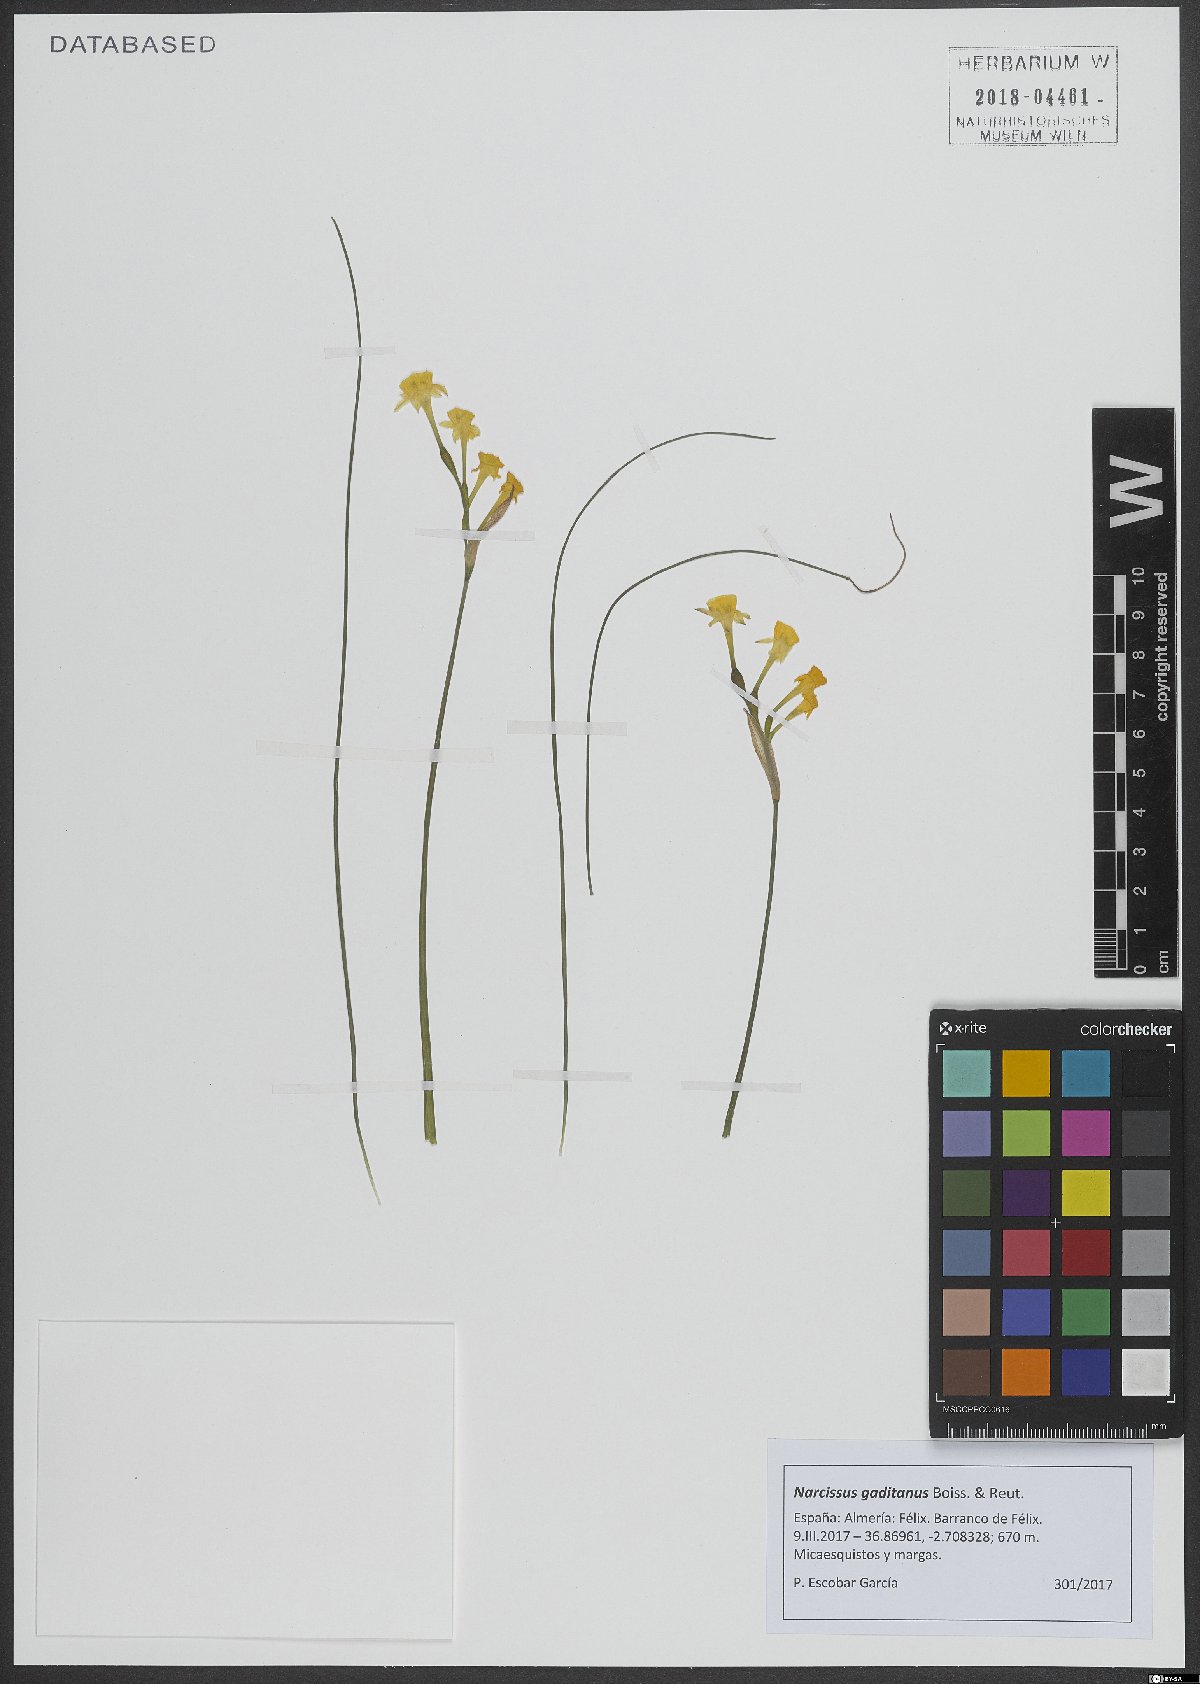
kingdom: Plantae
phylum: Tracheophyta
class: Liliopsida
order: Asparagales
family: Amaryllidaceae
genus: Narcissus
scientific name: Narcissus gaditanus
